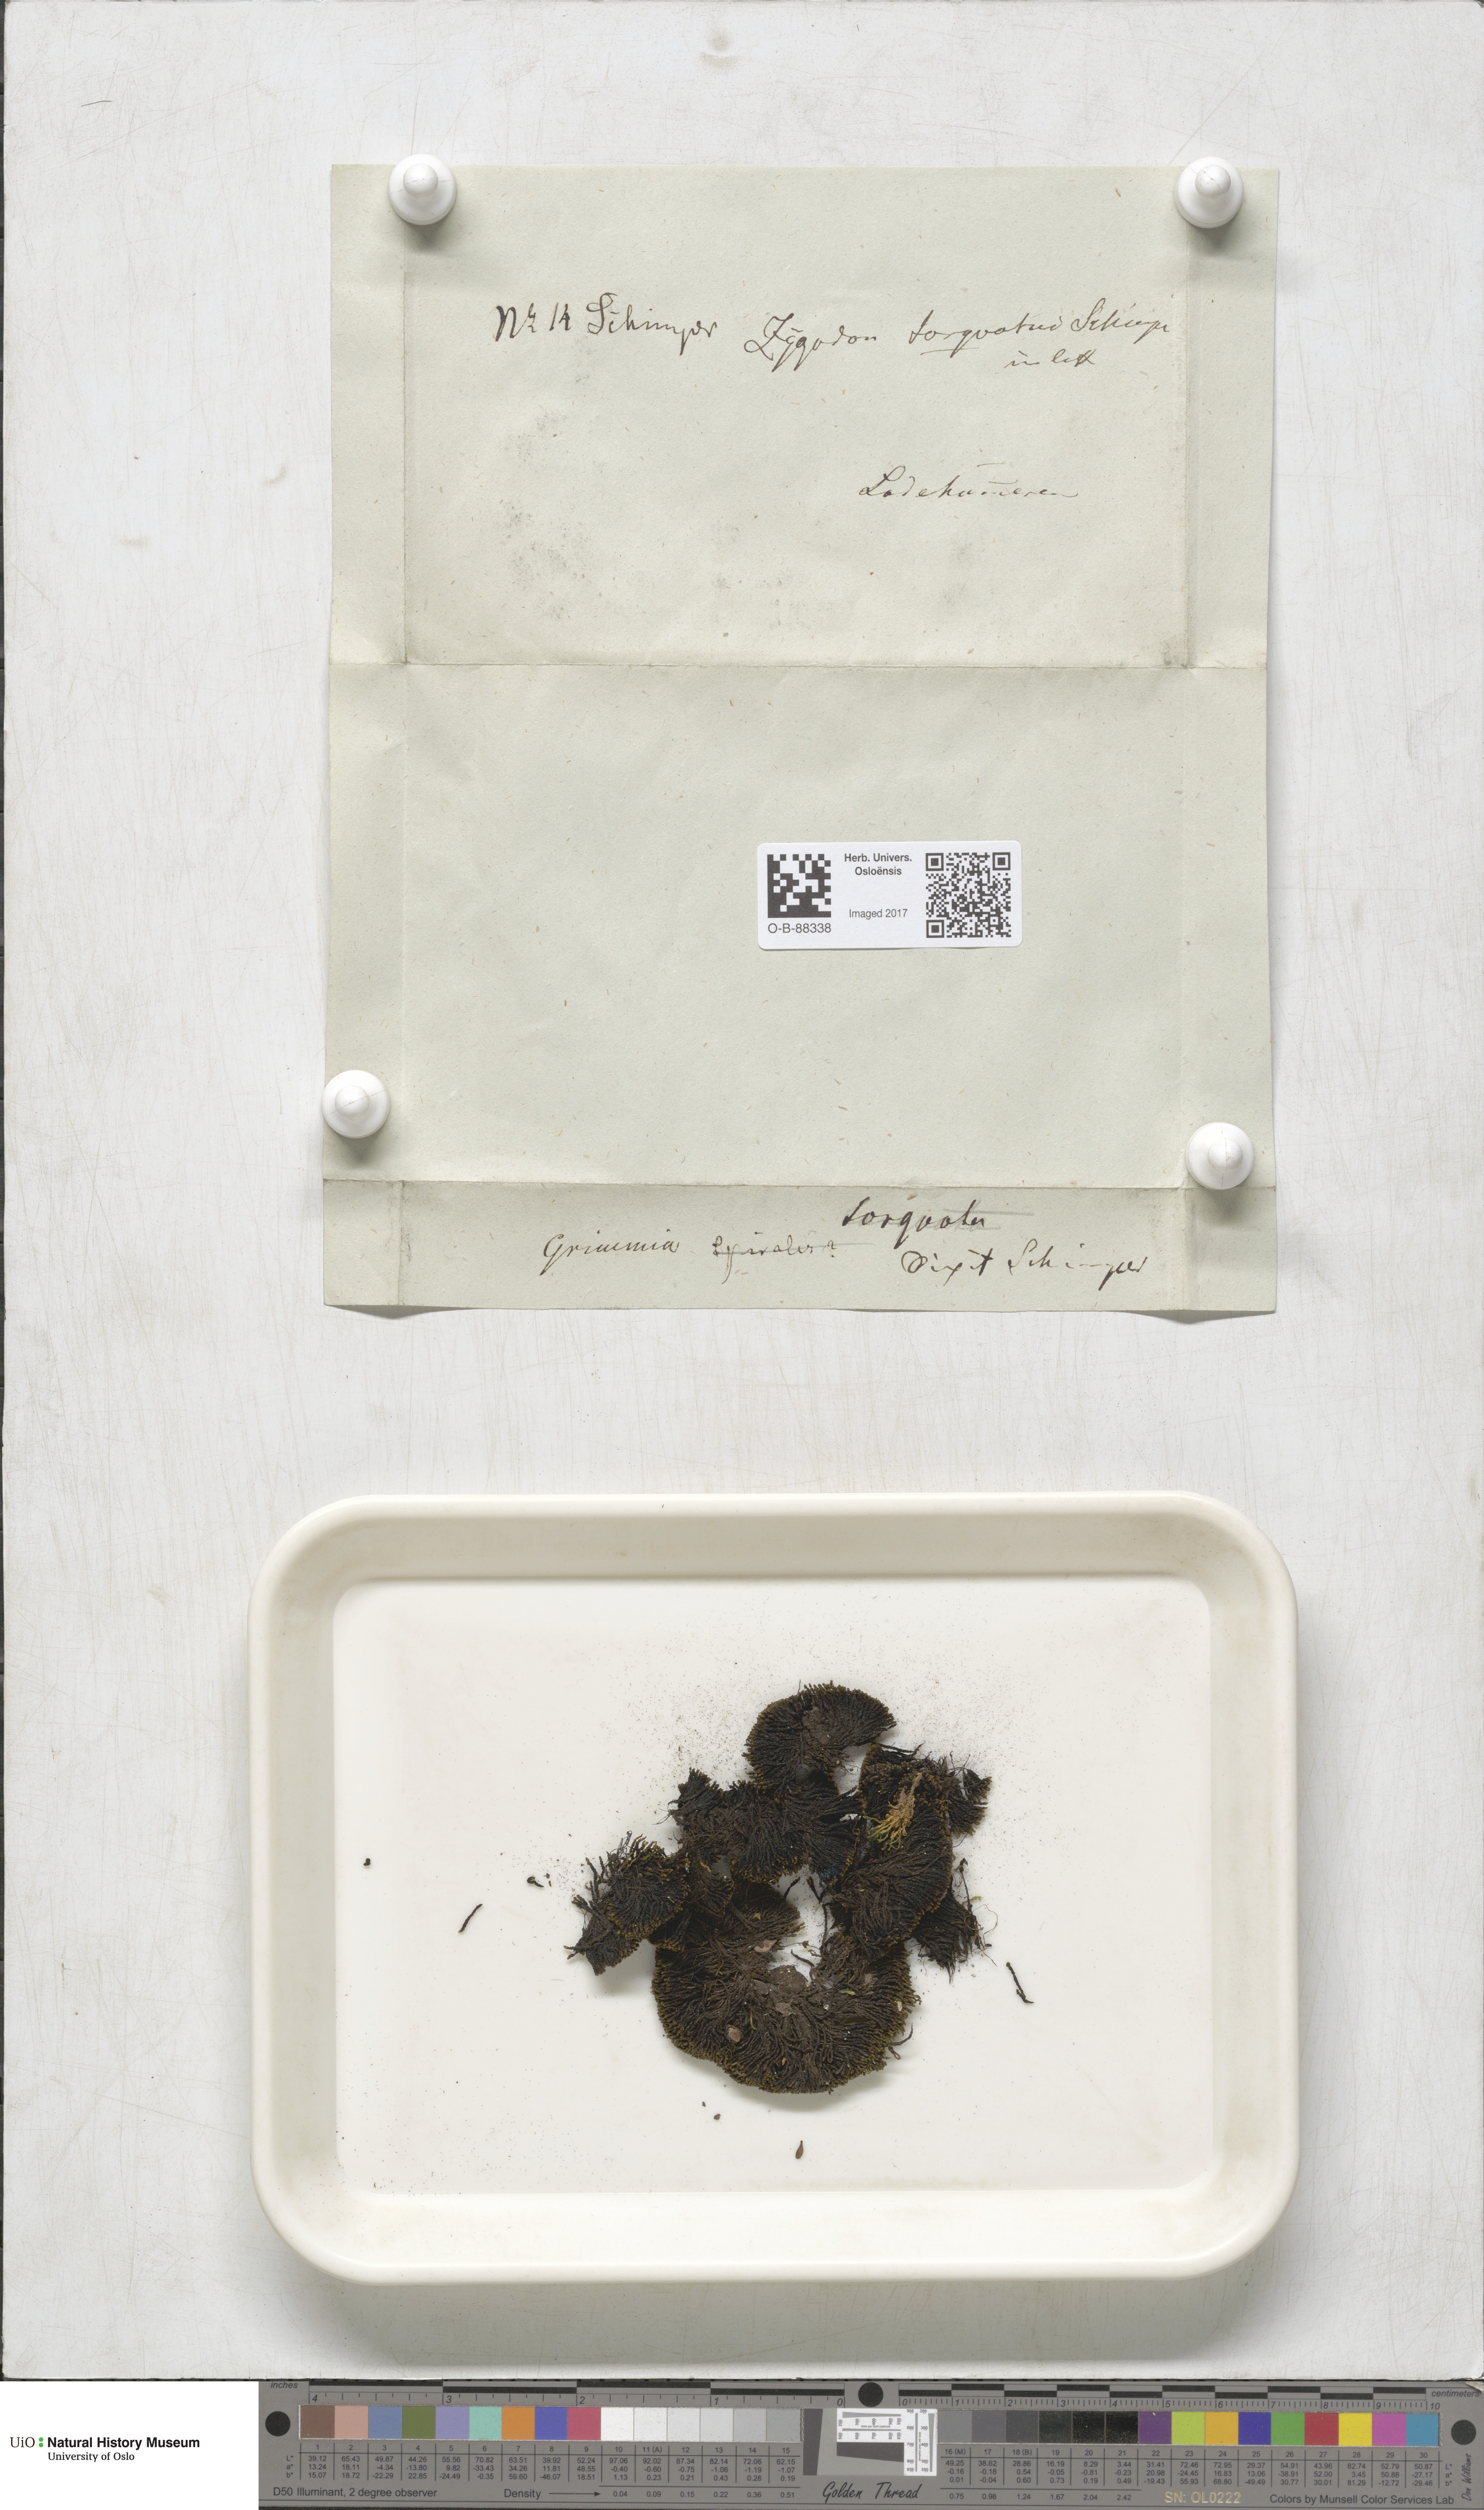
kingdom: Plantae
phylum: Bryophyta
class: Bryopsida
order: Grimmiales
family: Grimmiaceae
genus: Grimmia
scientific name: Grimmia torquata
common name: Twisted grimmia
